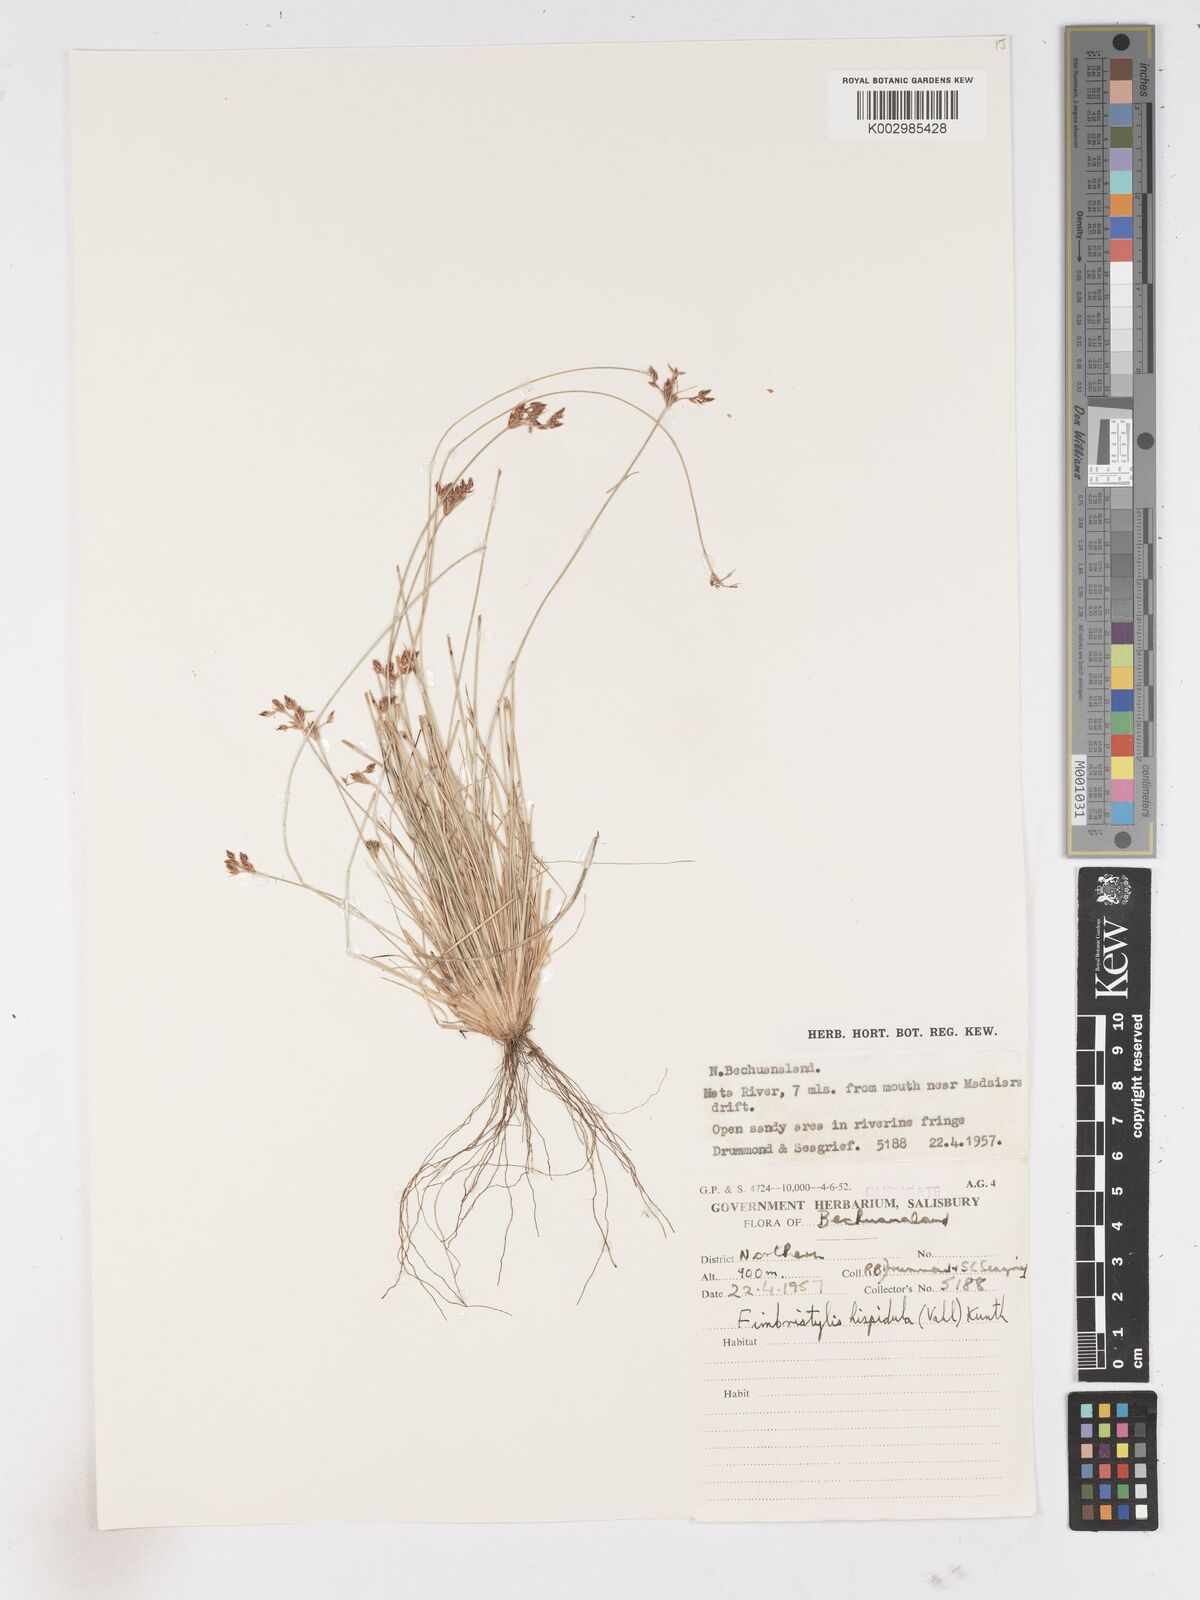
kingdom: Plantae
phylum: Tracheophyta
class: Liliopsida
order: Poales
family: Cyperaceae
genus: Fimbristylis
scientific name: Fimbristylis
